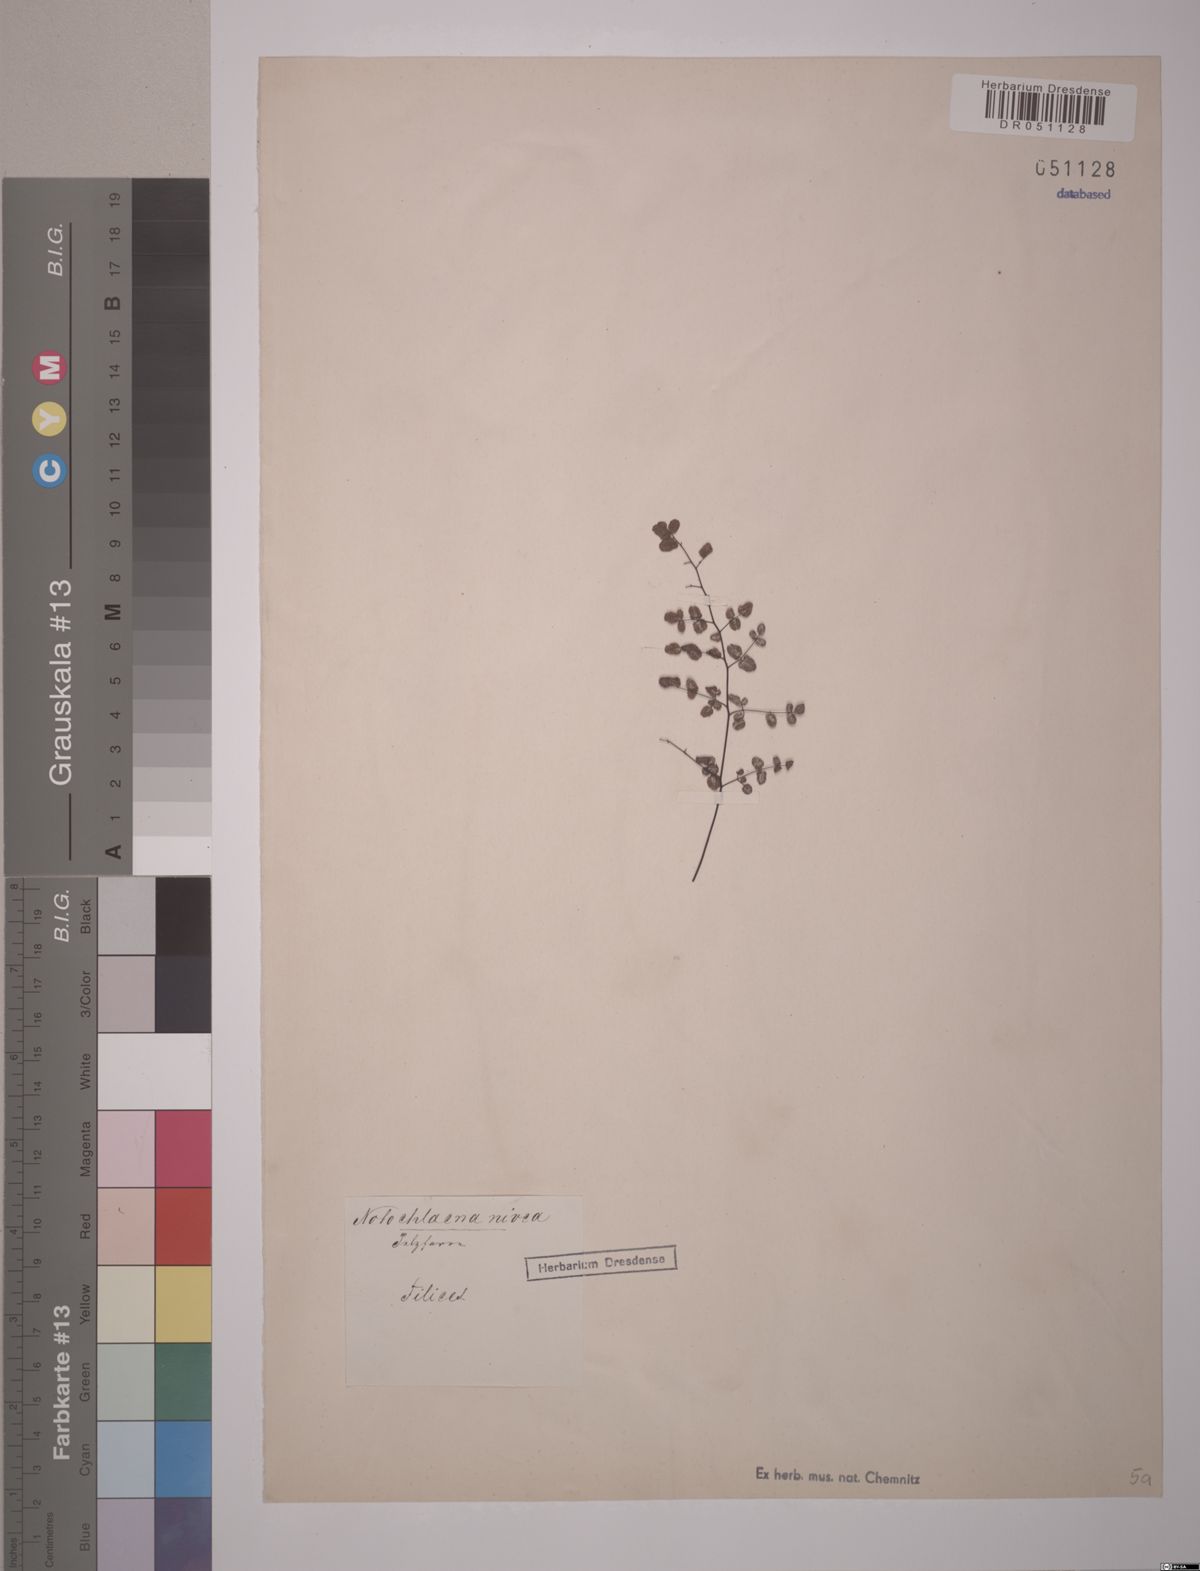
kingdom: Plantae
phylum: Tracheophyta
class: Polypodiopsida
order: Polypodiales
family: Pteridaceae
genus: Argyrochosma
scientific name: Argyrochosma nivea
